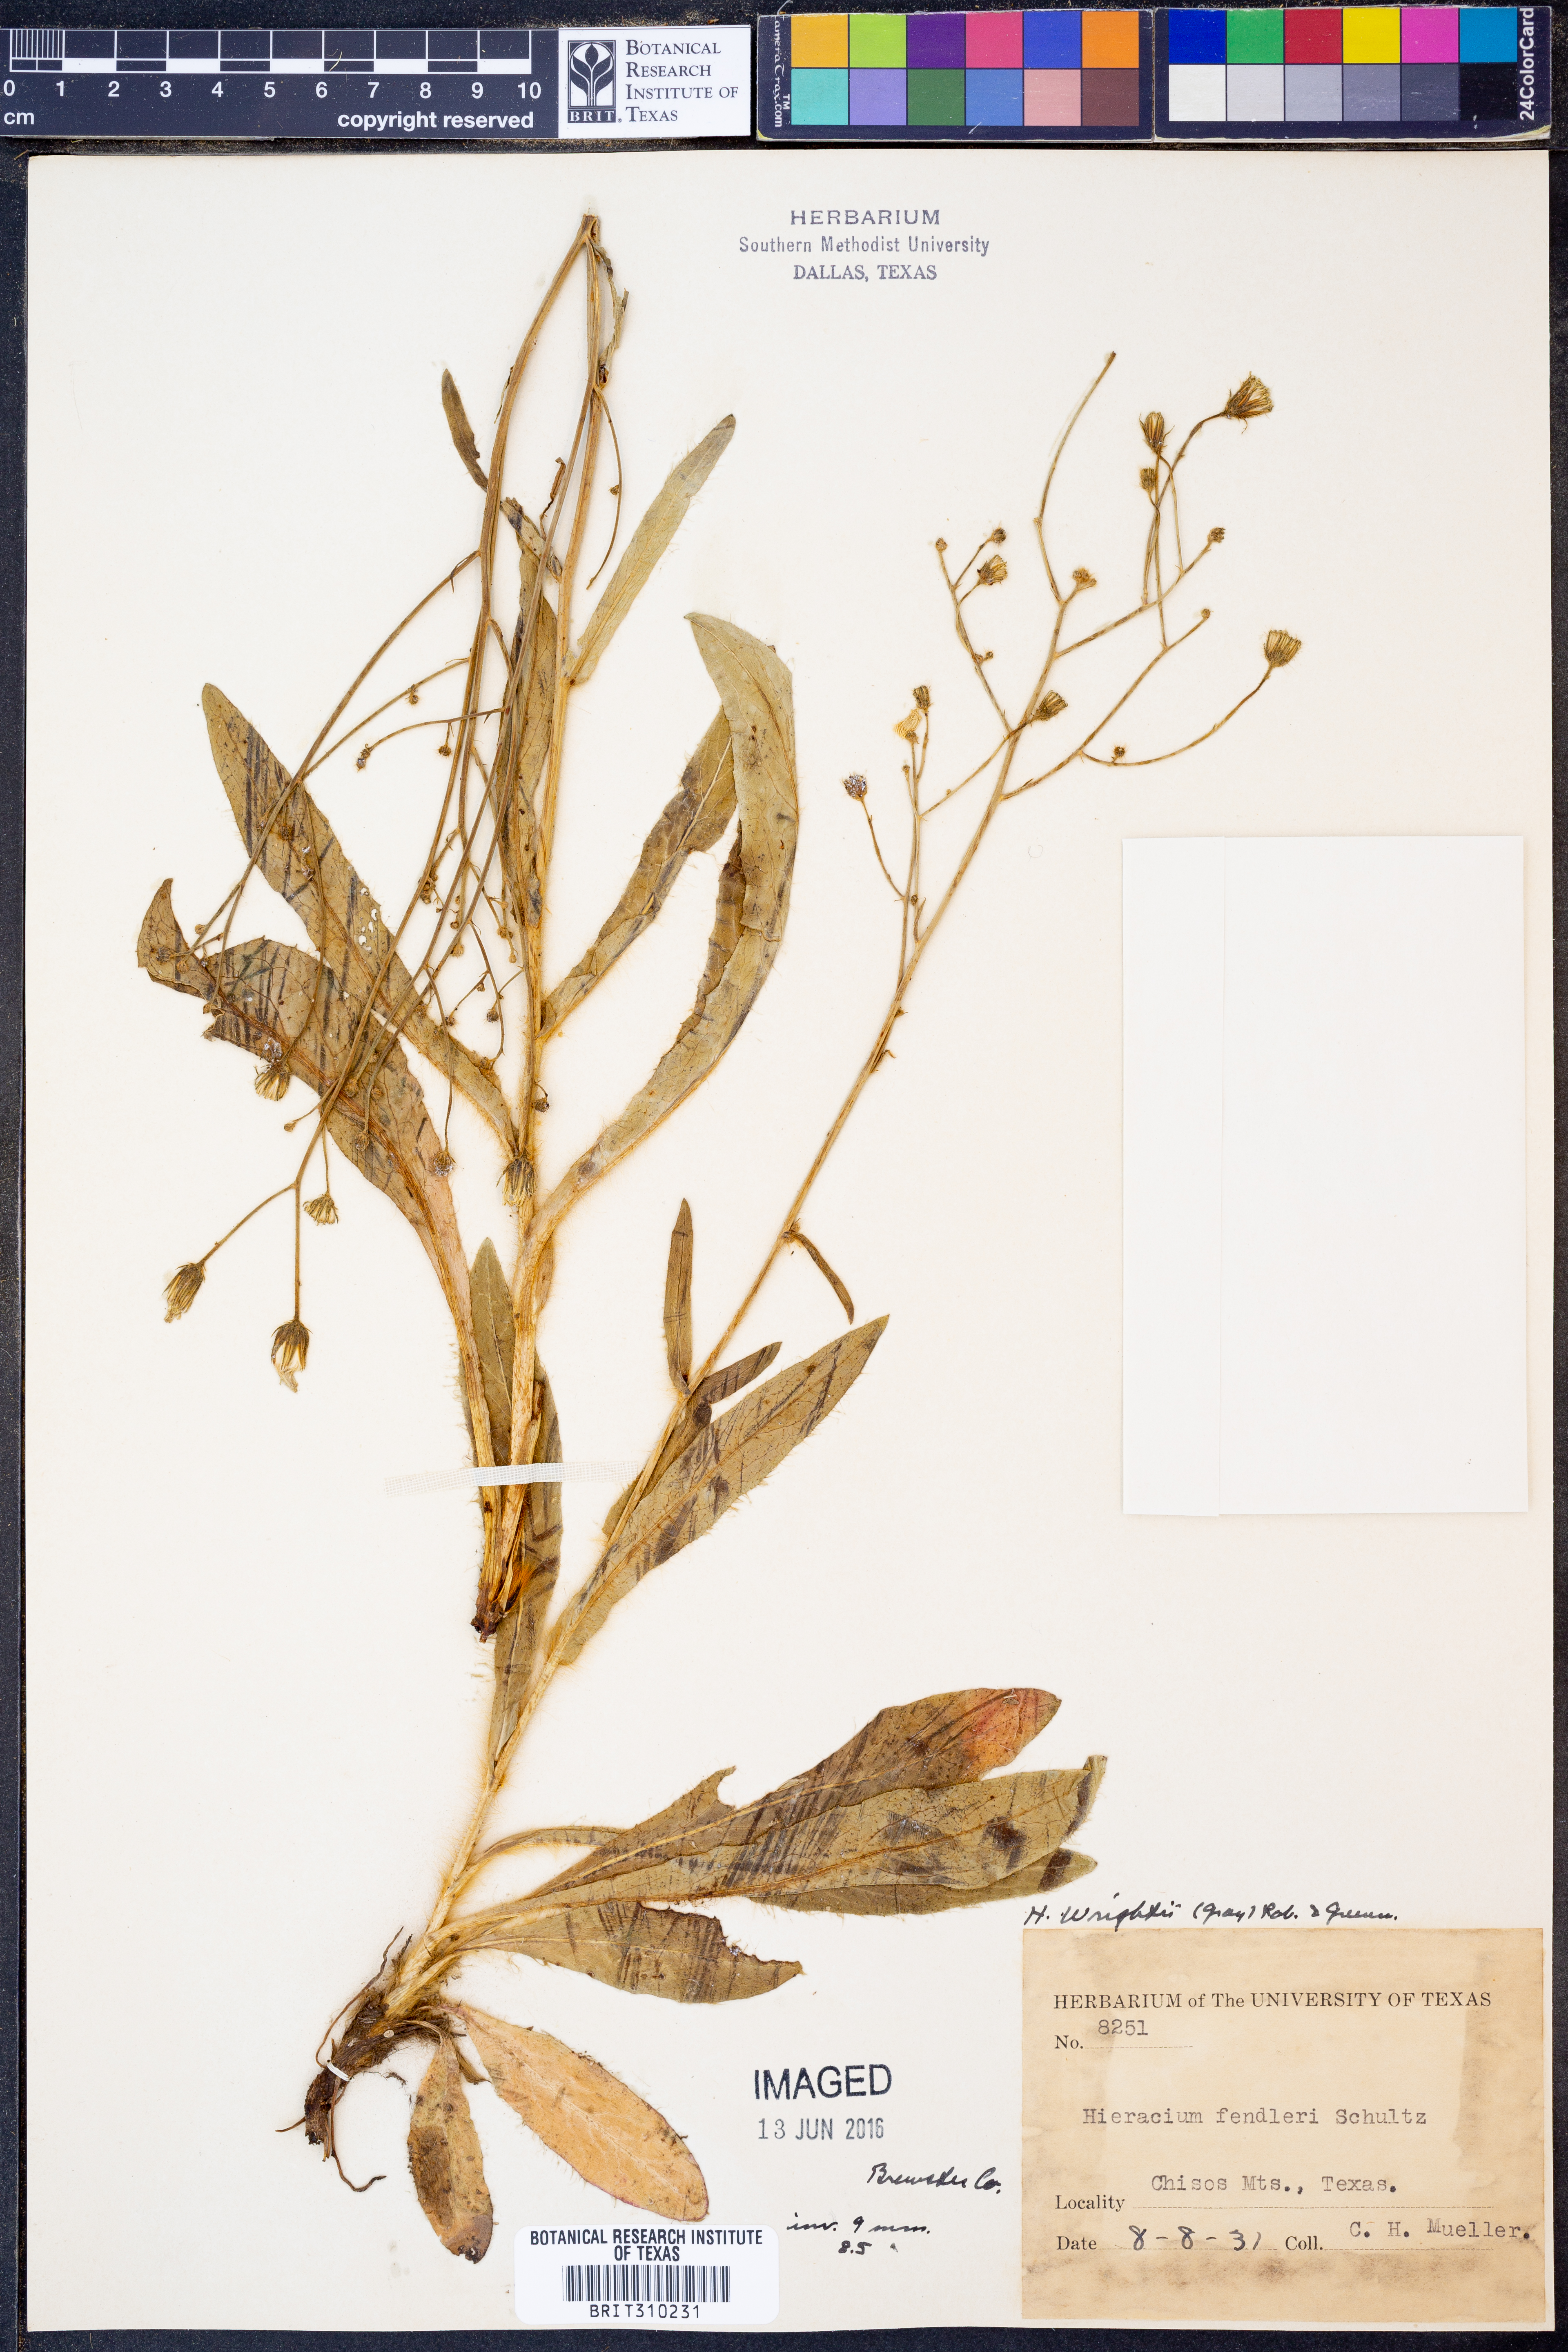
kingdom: Plantae
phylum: Tracheophyta
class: Magnoliopsida
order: Asterales
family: Asteraceae
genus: Hieracium
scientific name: Hieracium friesii
